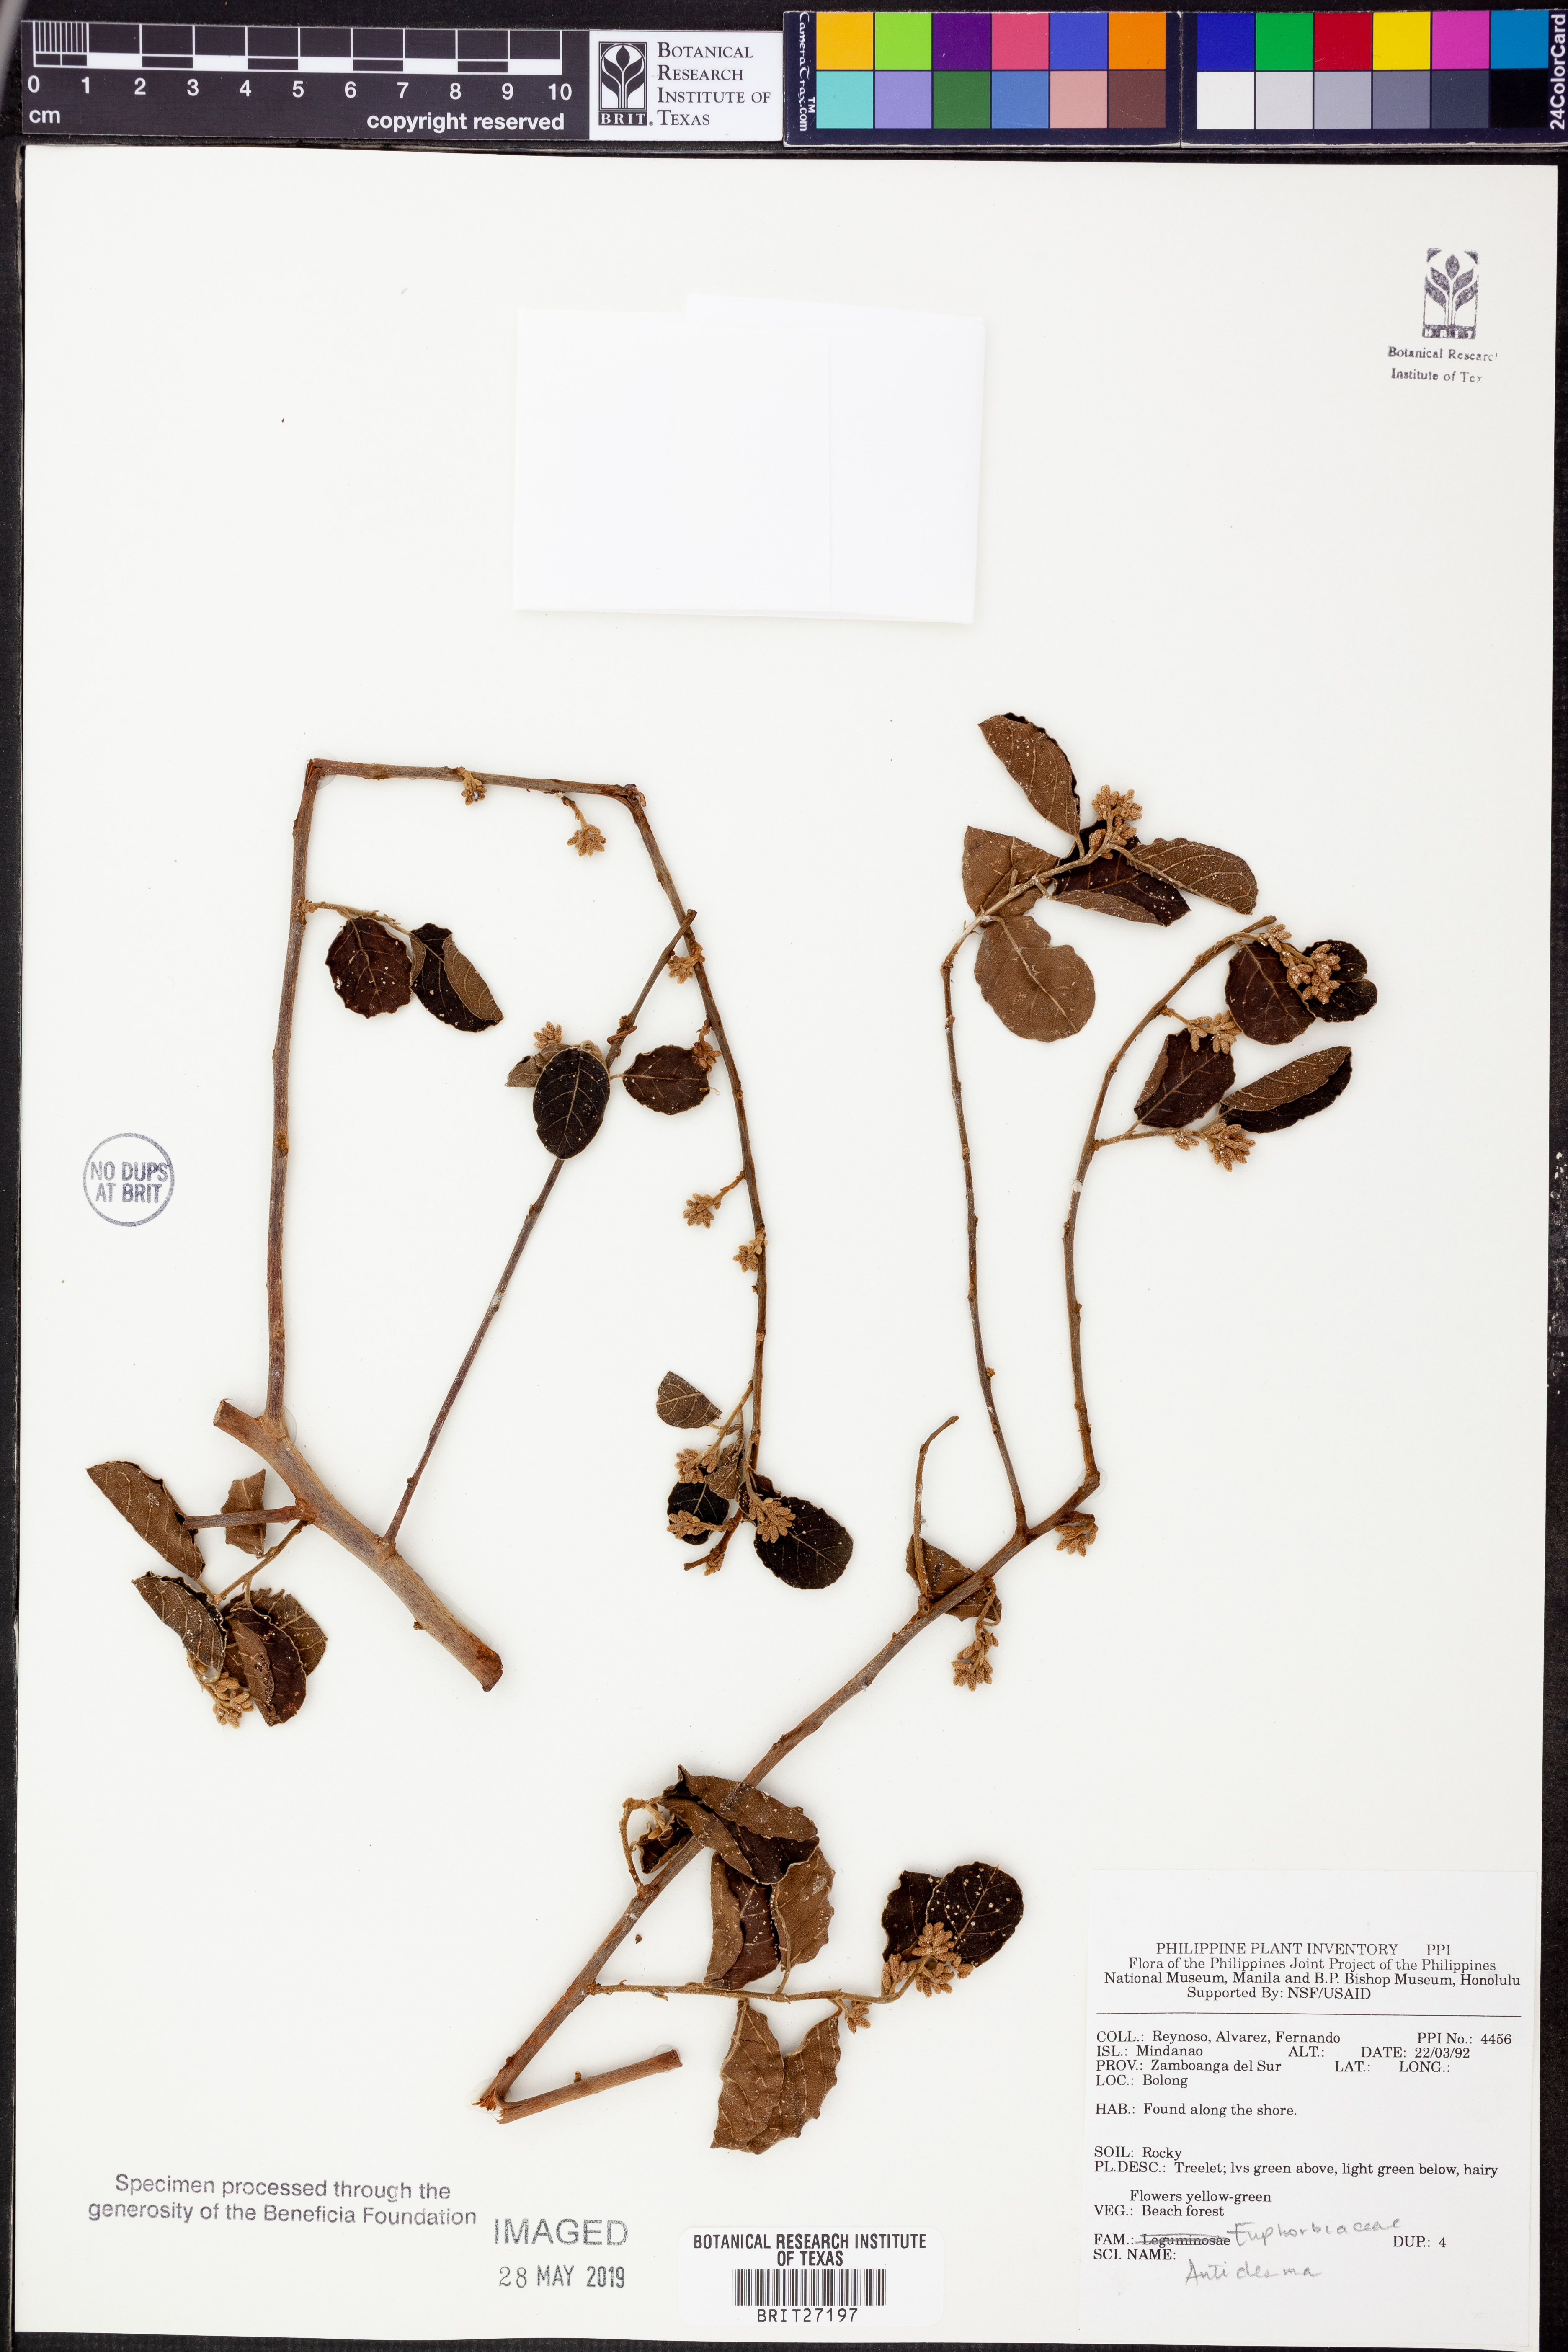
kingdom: Plantae
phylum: Tracheophyta
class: Magnoliopsida
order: Malpighiales
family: Phyllanthaceae
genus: Antidesma
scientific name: Antidesma
